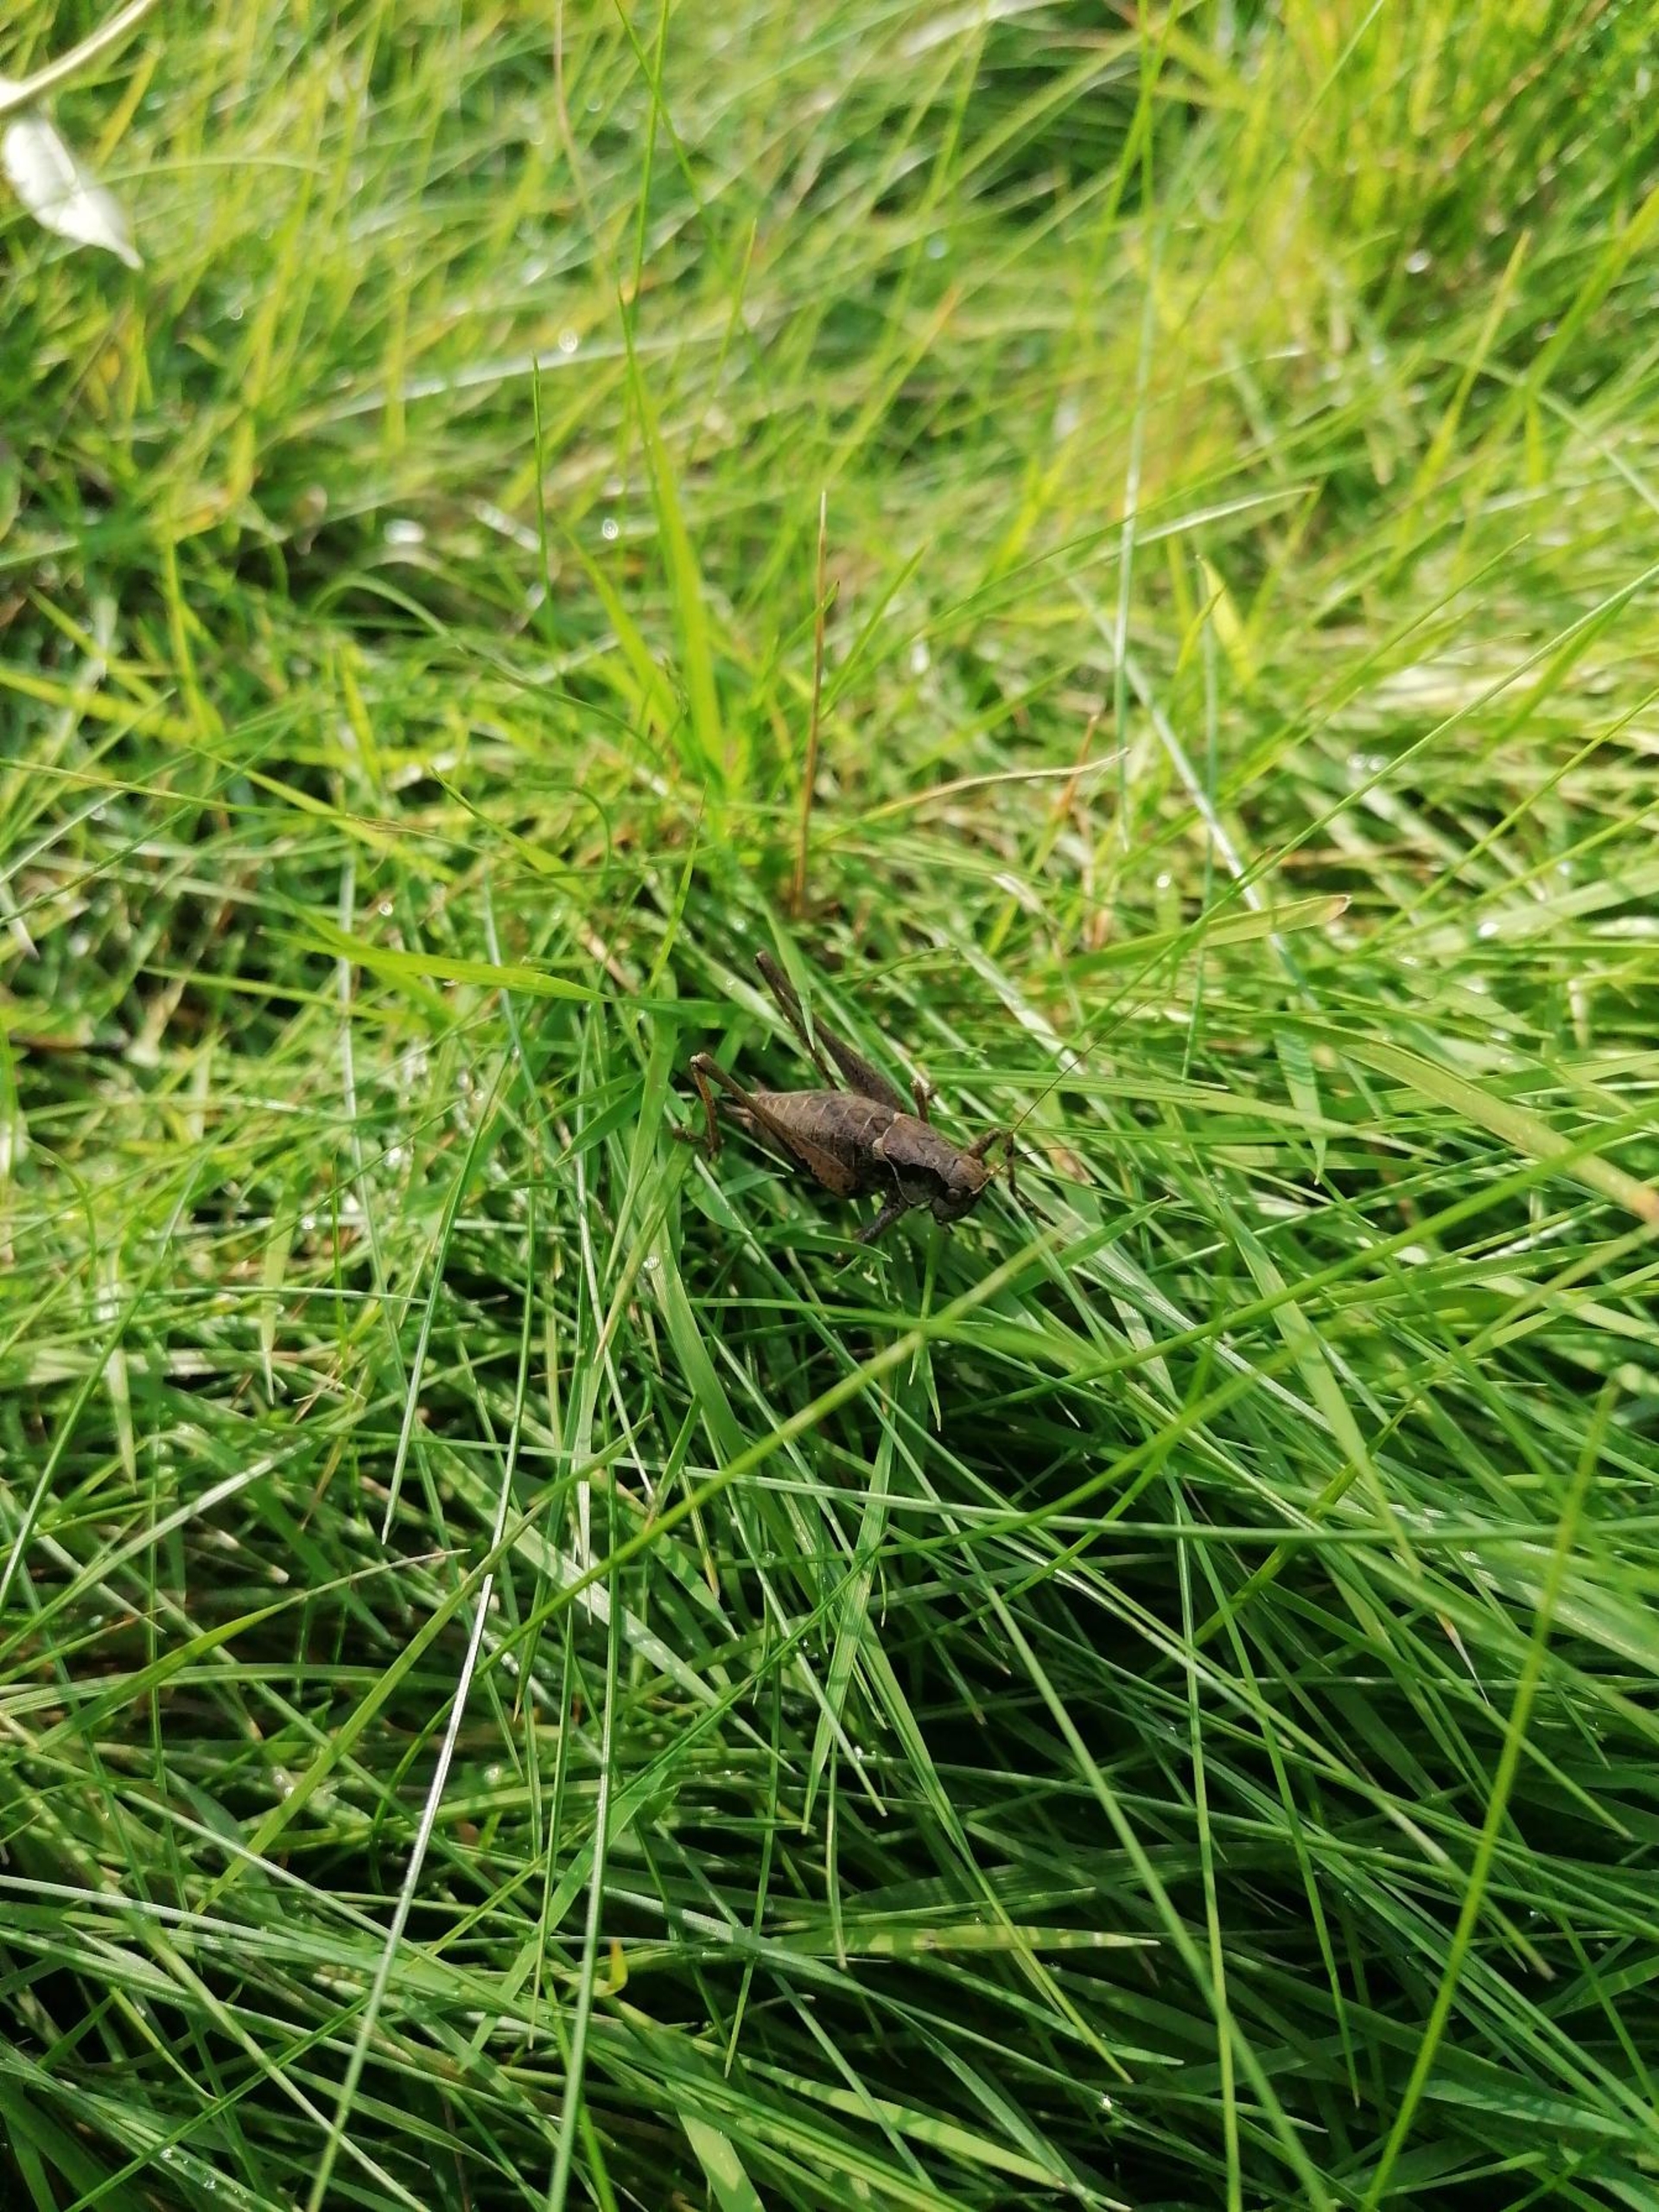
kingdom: Animalia
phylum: Arthropoda
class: Insecta
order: Orthoptera
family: Tettigoniidae
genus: Pholidoptera
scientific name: Pholidoptera griseoaptera
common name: Buskgræshoppe
